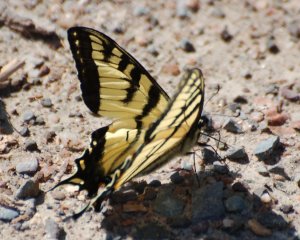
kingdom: Animalia
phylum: Arthropoda
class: Insecta
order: Lepidoptera
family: Papilionidae
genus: Pterourus
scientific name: Pterourus canadensis
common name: Canadian Tiger Swallowtail
